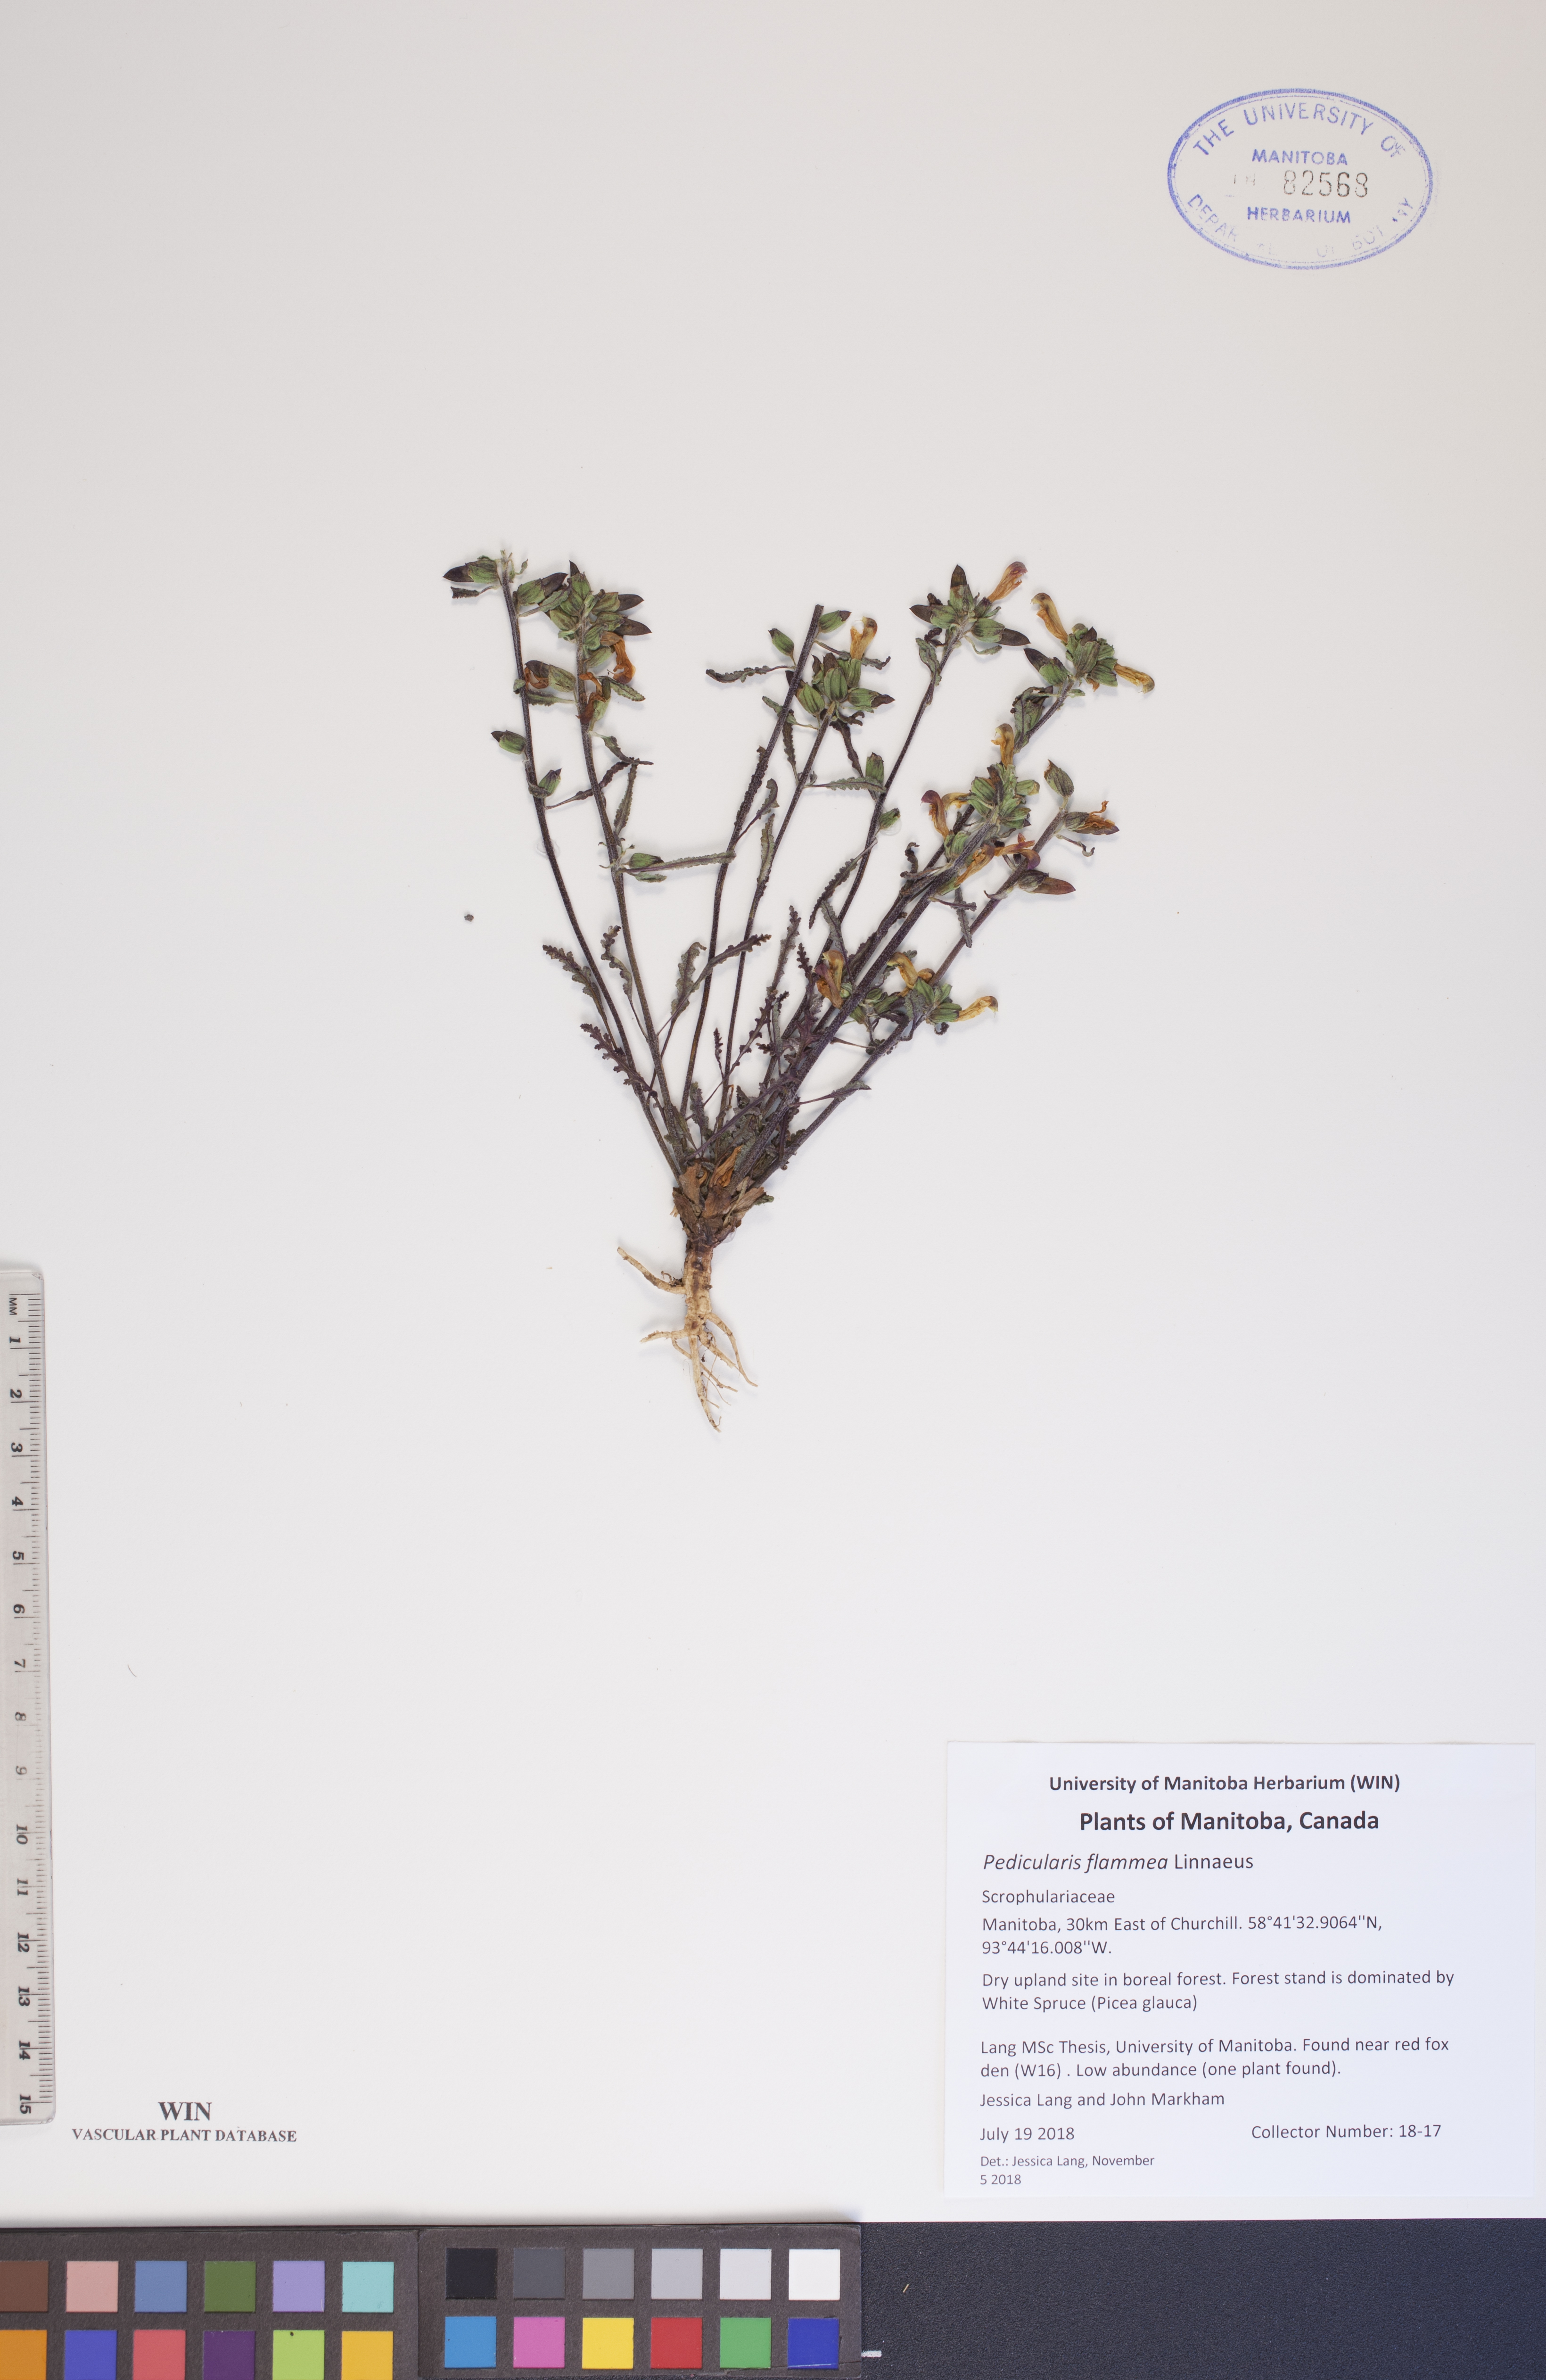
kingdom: Plantae
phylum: Tracheophyta
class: Magnoliopsida
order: Lamiales
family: Orobanchaceae
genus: Pedicularis
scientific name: Pedicularis flammea
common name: Flame-coloured lousewort
